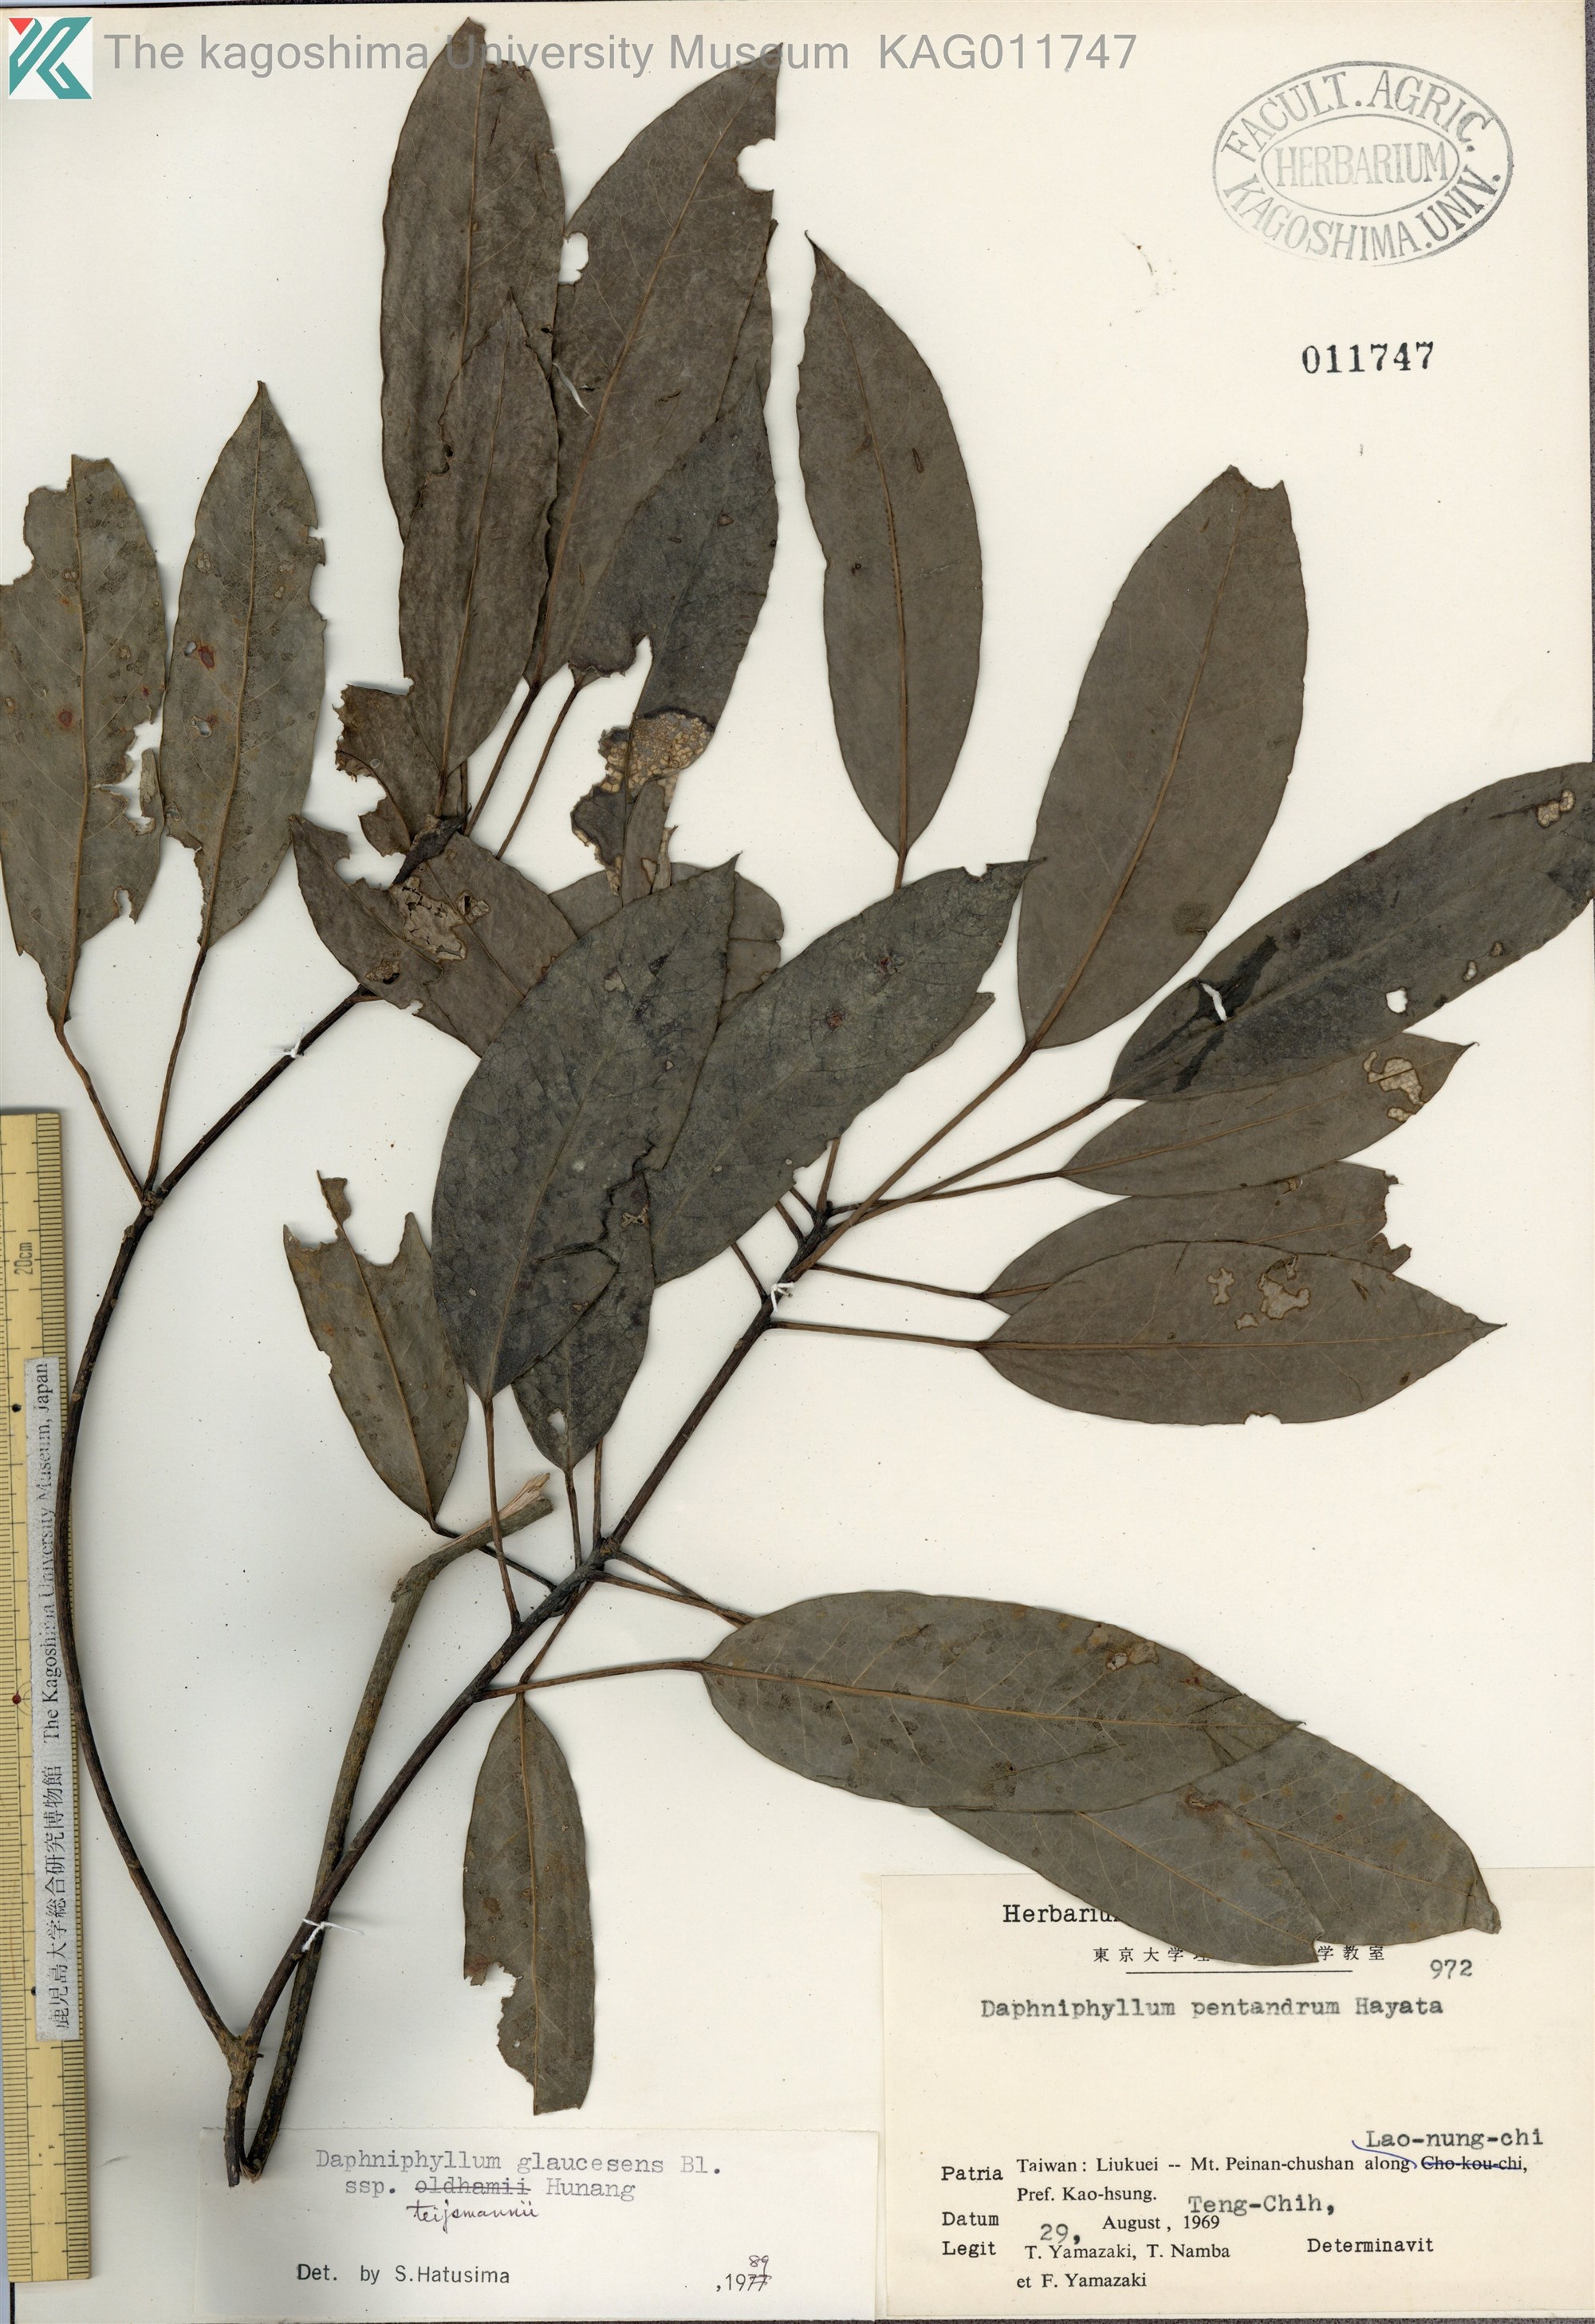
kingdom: Plantae
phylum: Tracheophyta
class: Magnoliopsida
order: Saxifragales
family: Daphniphyllaceae
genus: Daphniphyllum
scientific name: Daphniphyllum teijsmannii
